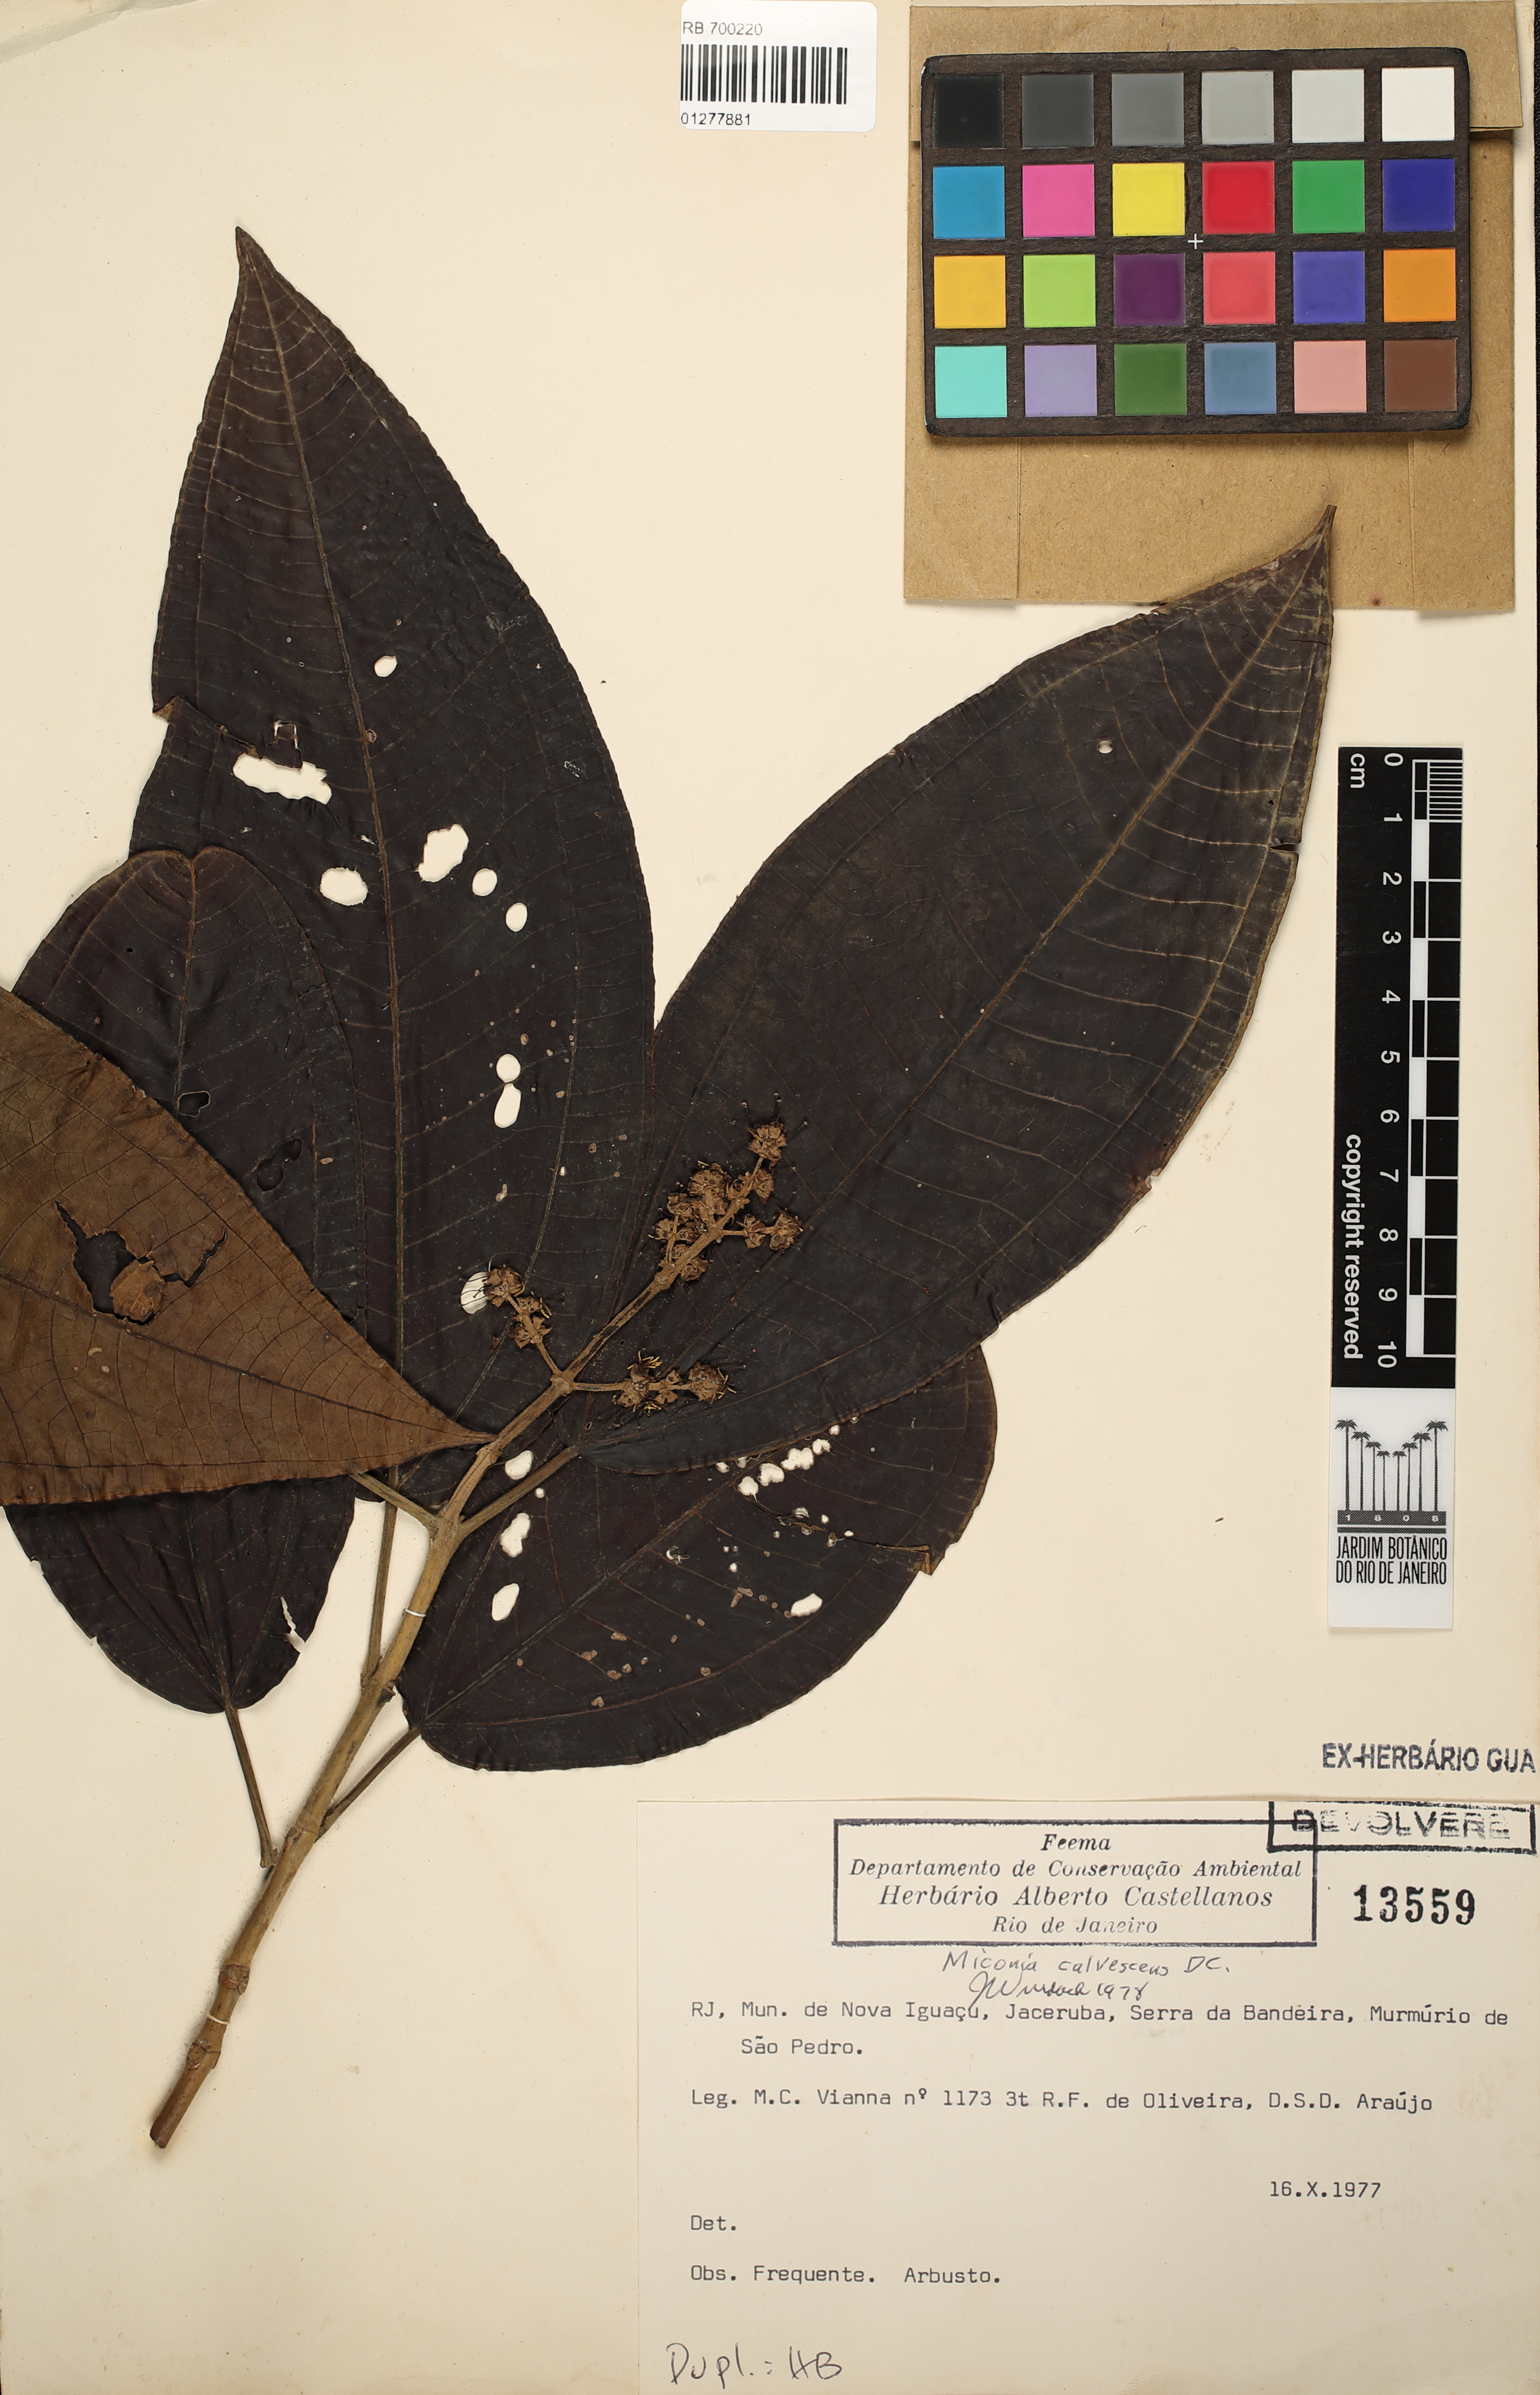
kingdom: Plantae
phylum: Tracheophyta
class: Magnoliopsida
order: Myrtales
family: Melastomataceae
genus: Miconia
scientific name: Miconia calvescens
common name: Purple plague
